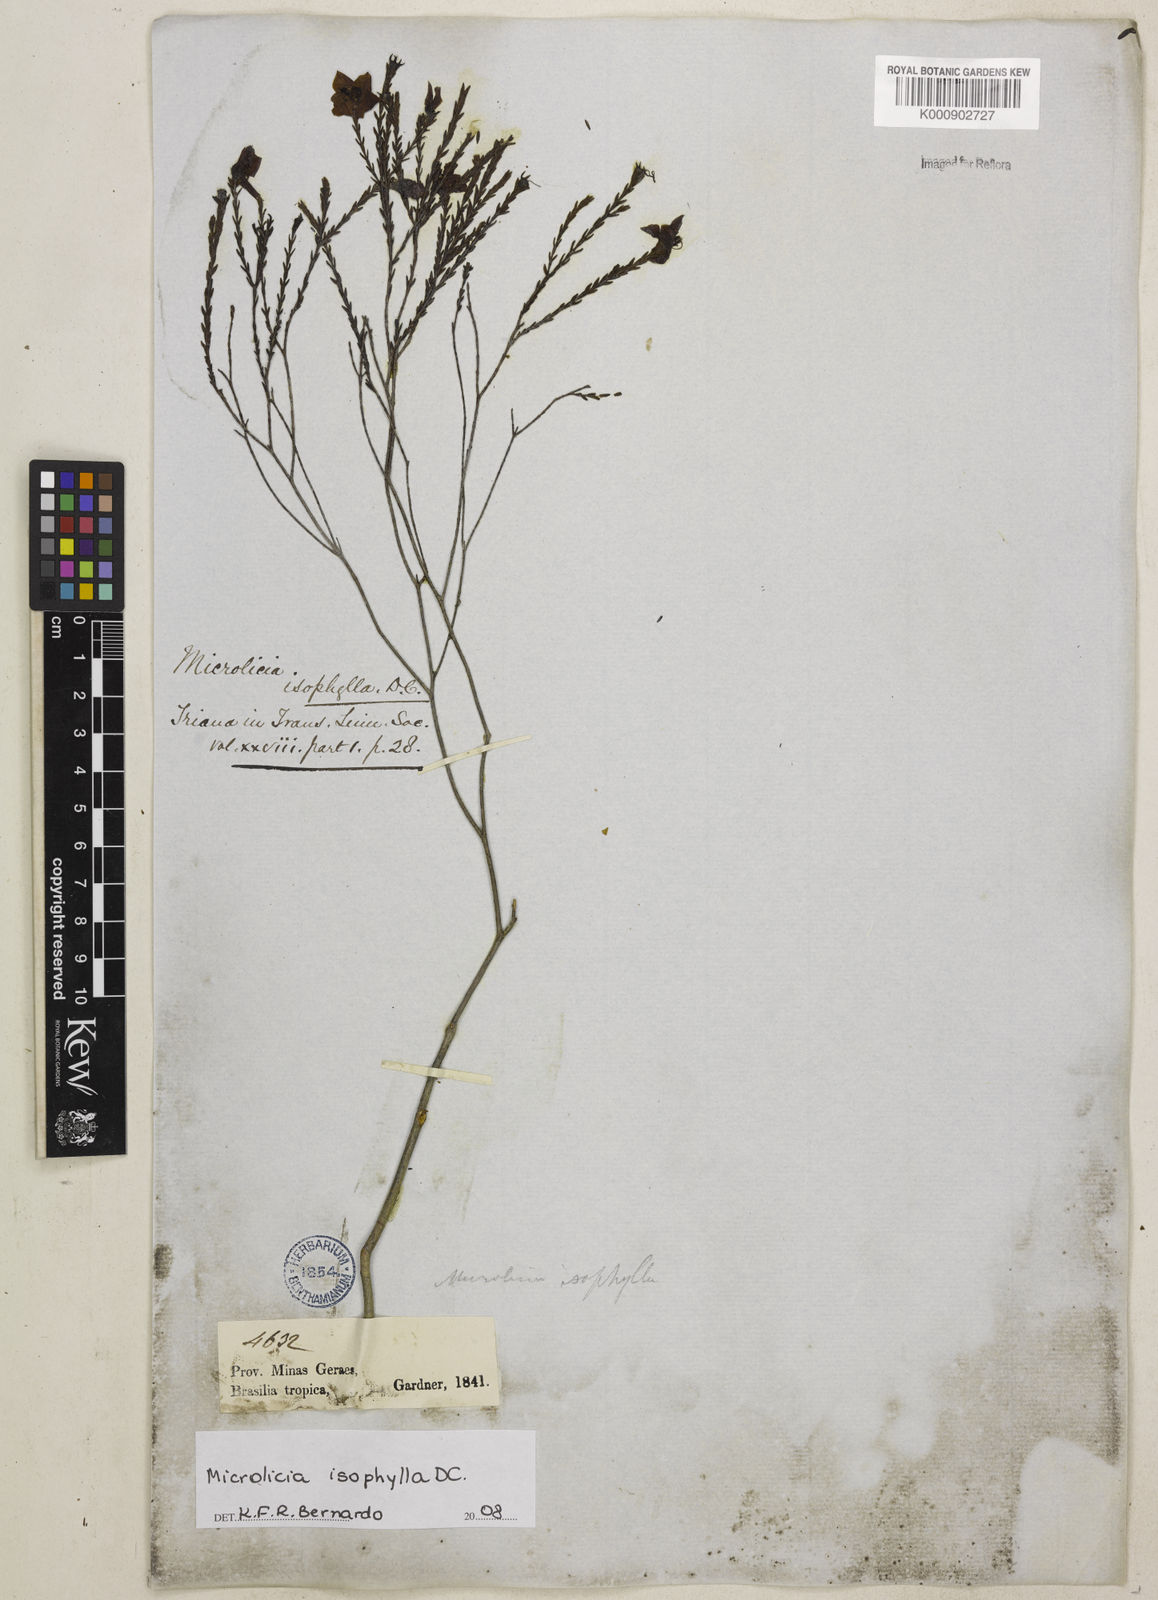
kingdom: Plantae
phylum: Tracheophyta
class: Magnoliopsida
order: Myrtales
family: Melastomataceae
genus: Microlicia
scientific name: Microlicia isophylla
